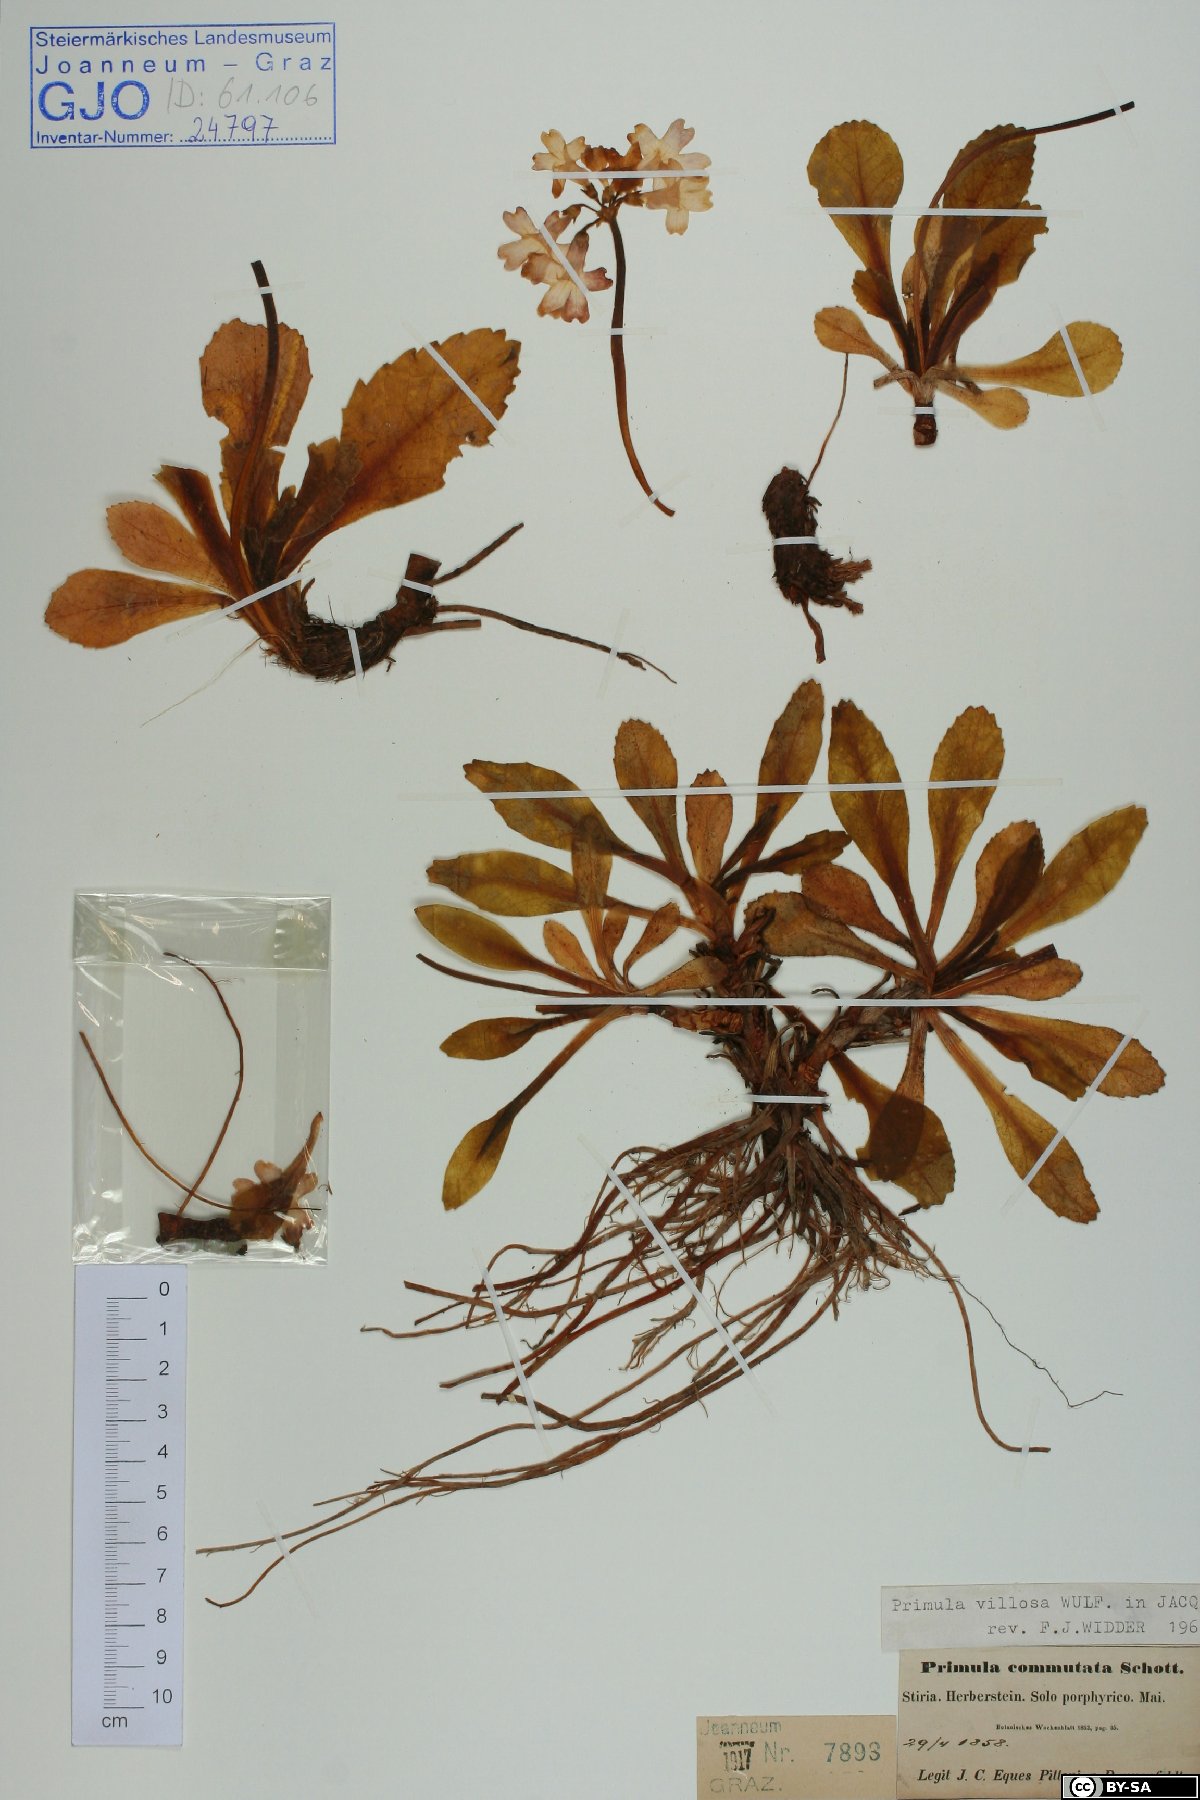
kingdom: Plantae
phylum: Tracheophyta
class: Magnoliopsida
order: Ericales
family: Primulaceae
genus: Primula
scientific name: Primula villosa
